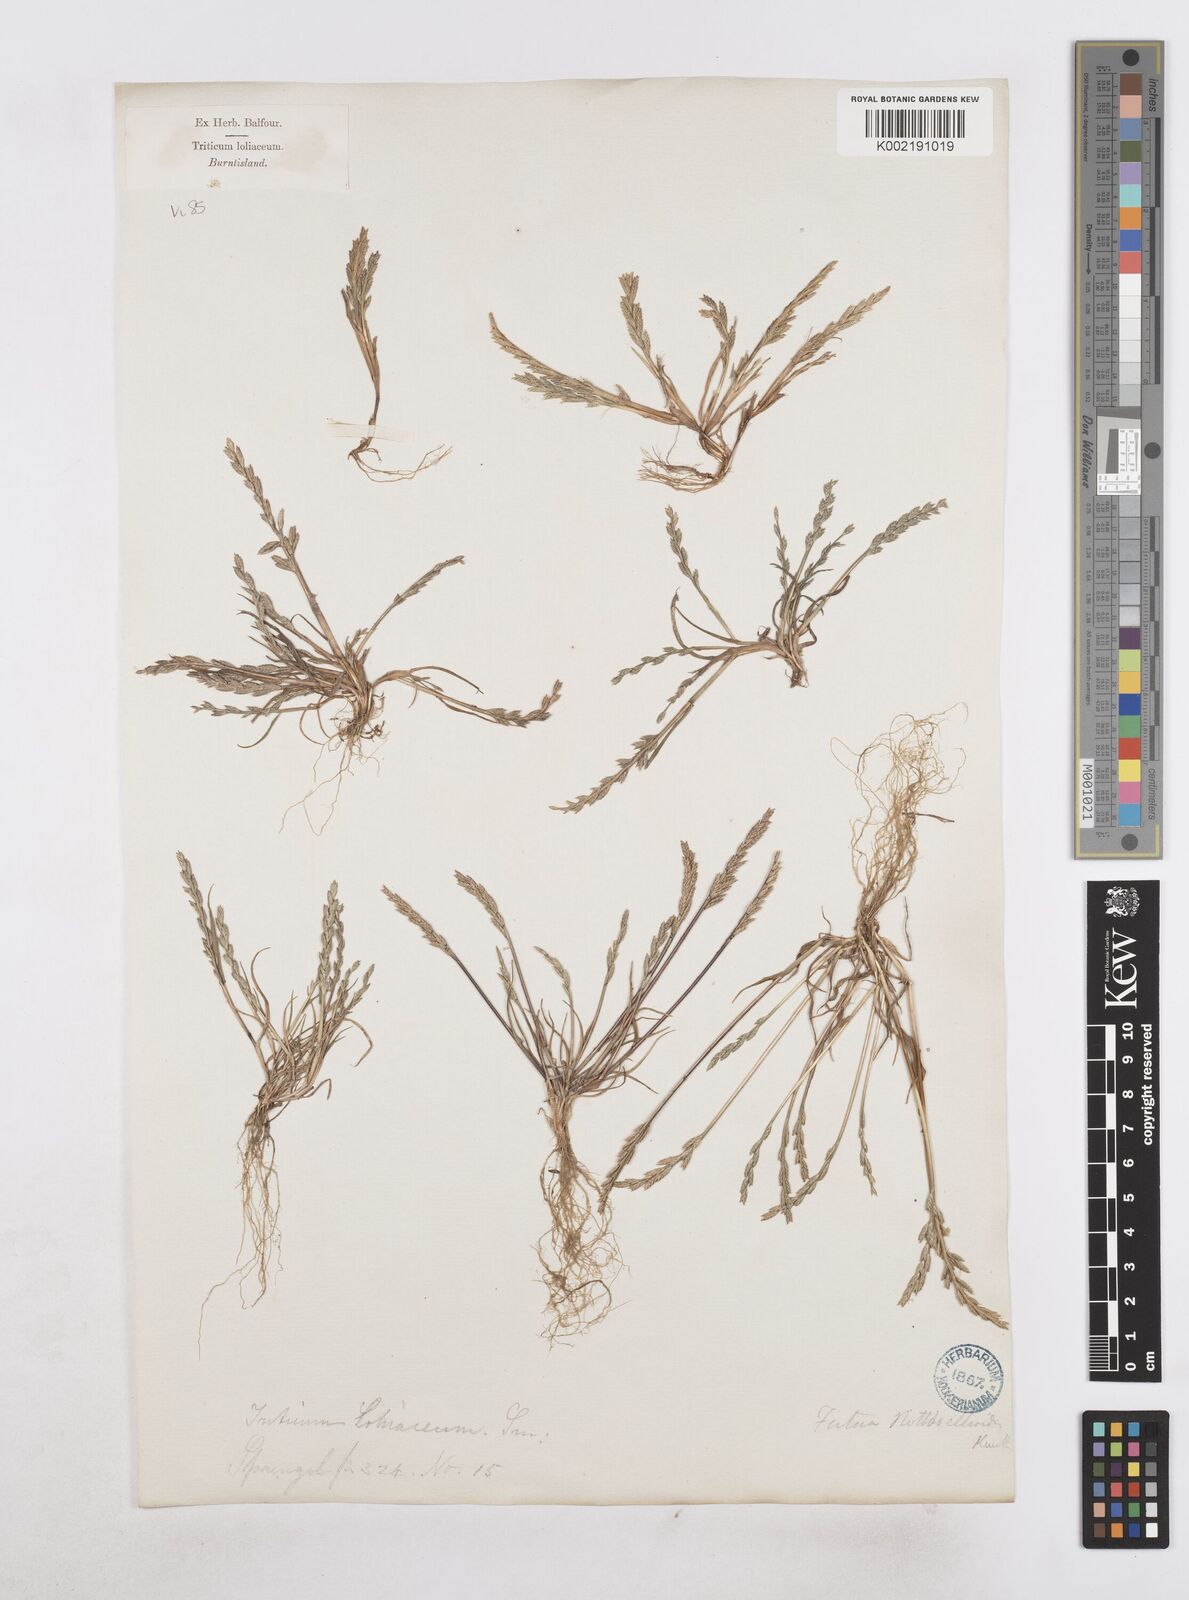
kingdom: Plantae
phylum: Tracheophyta
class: Liliopsida
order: Poales
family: Poaceae
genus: Catapodium
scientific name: Catapodium marinum
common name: Sea fern-grass
